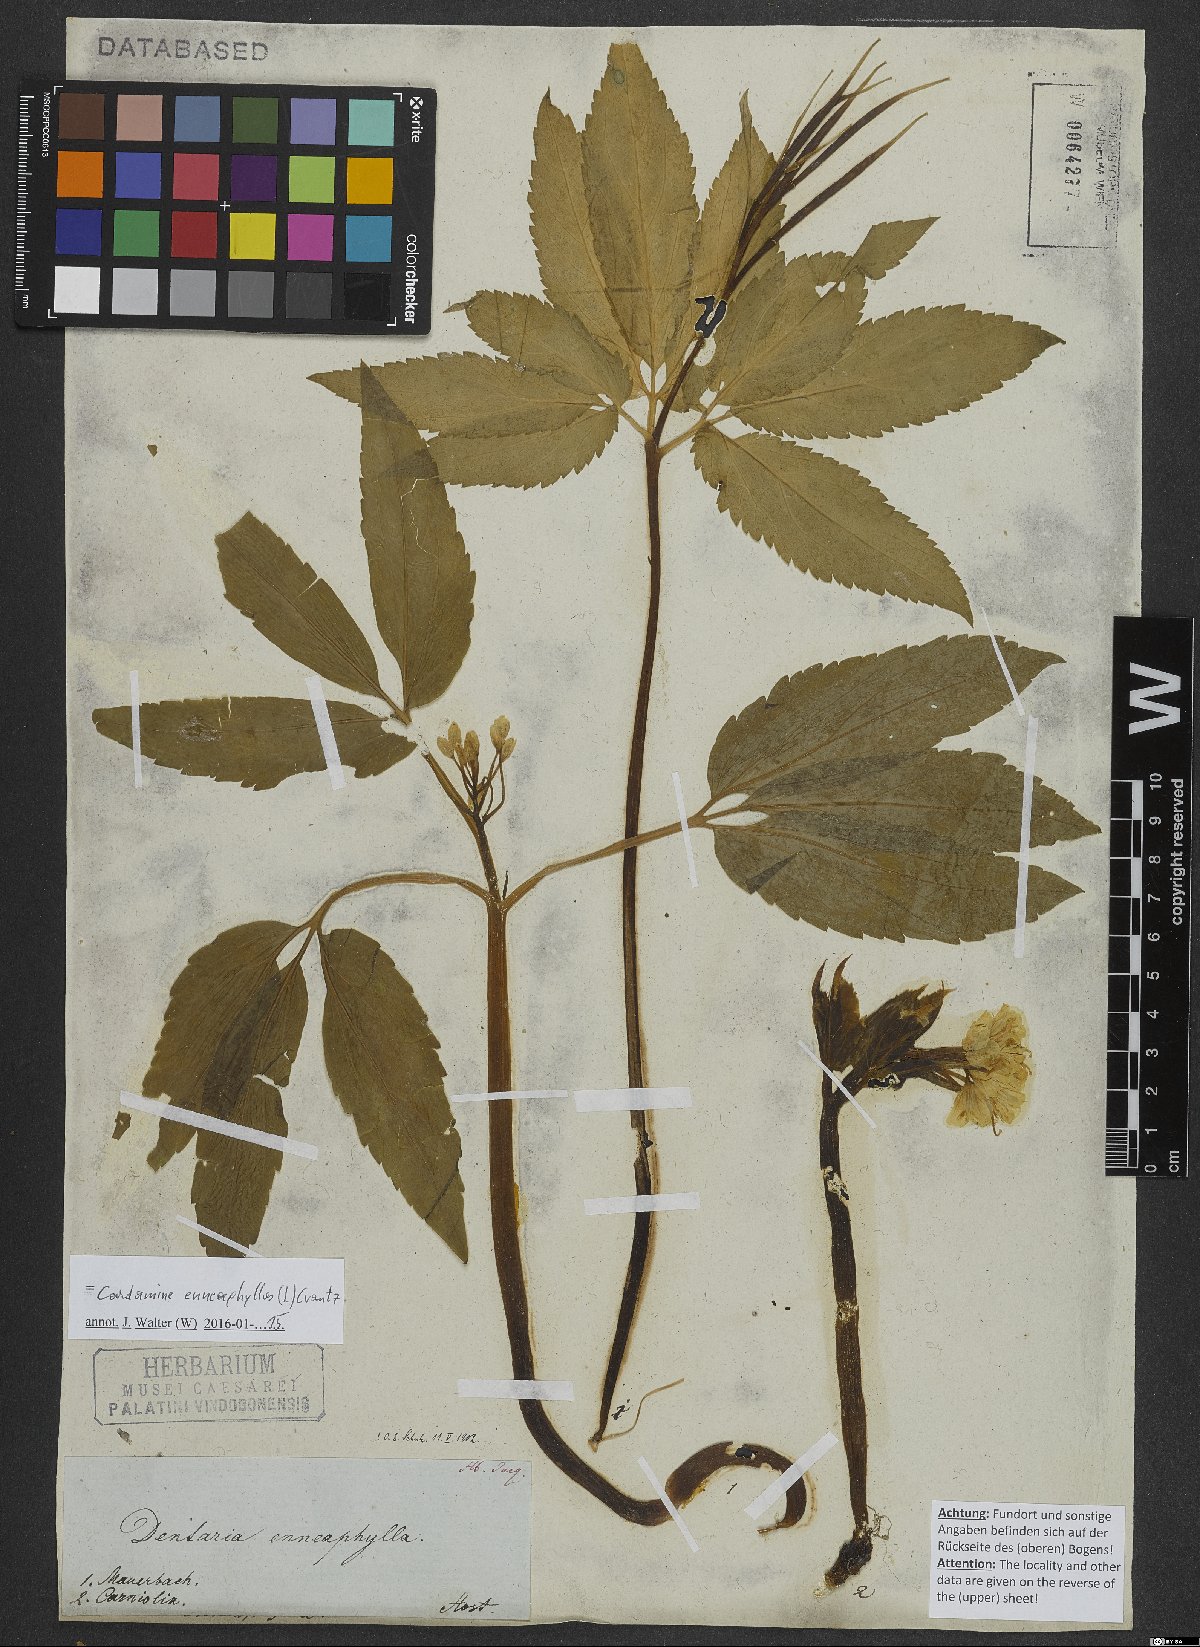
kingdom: Plantae
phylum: Tracheophyta
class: Magnoliopsida
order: Brassicales
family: Brassicaceae
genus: Cardamine
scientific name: Cardamine enneaphyllos
